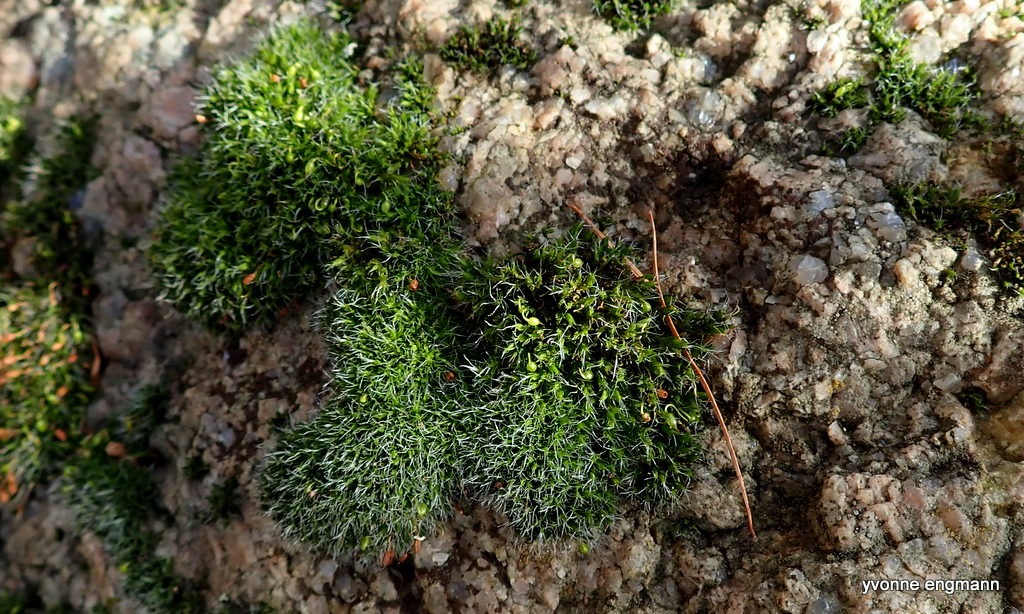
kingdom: Plantae
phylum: Bryophyta
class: Bryopsida
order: Grimmiales
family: Grimmiaceae
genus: Grimmia
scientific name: Grimmia pulvinata
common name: Pude-gråmos
